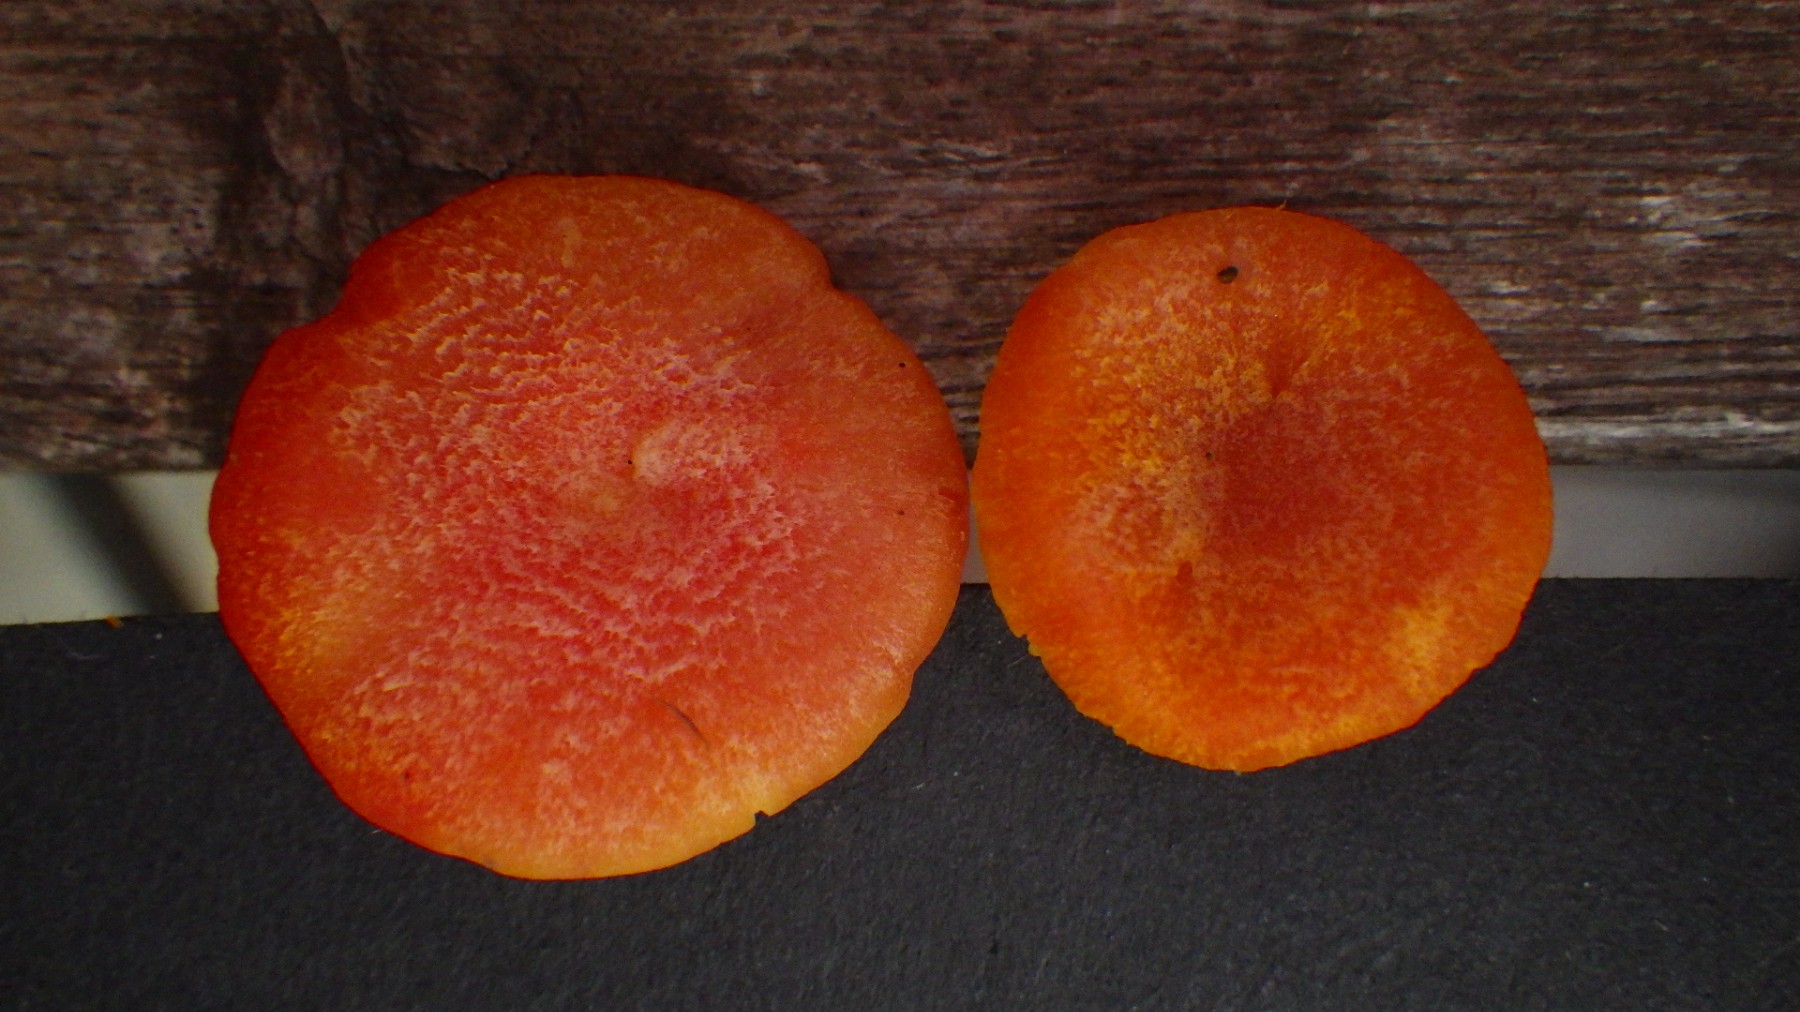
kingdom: Fungi
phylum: Basidiomycota
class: Agaricomycetes
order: Agaricales
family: Hygrophoraceae
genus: Hygrocybe
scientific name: Hygrocybe cantharellus
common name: kantarel-vokshat
